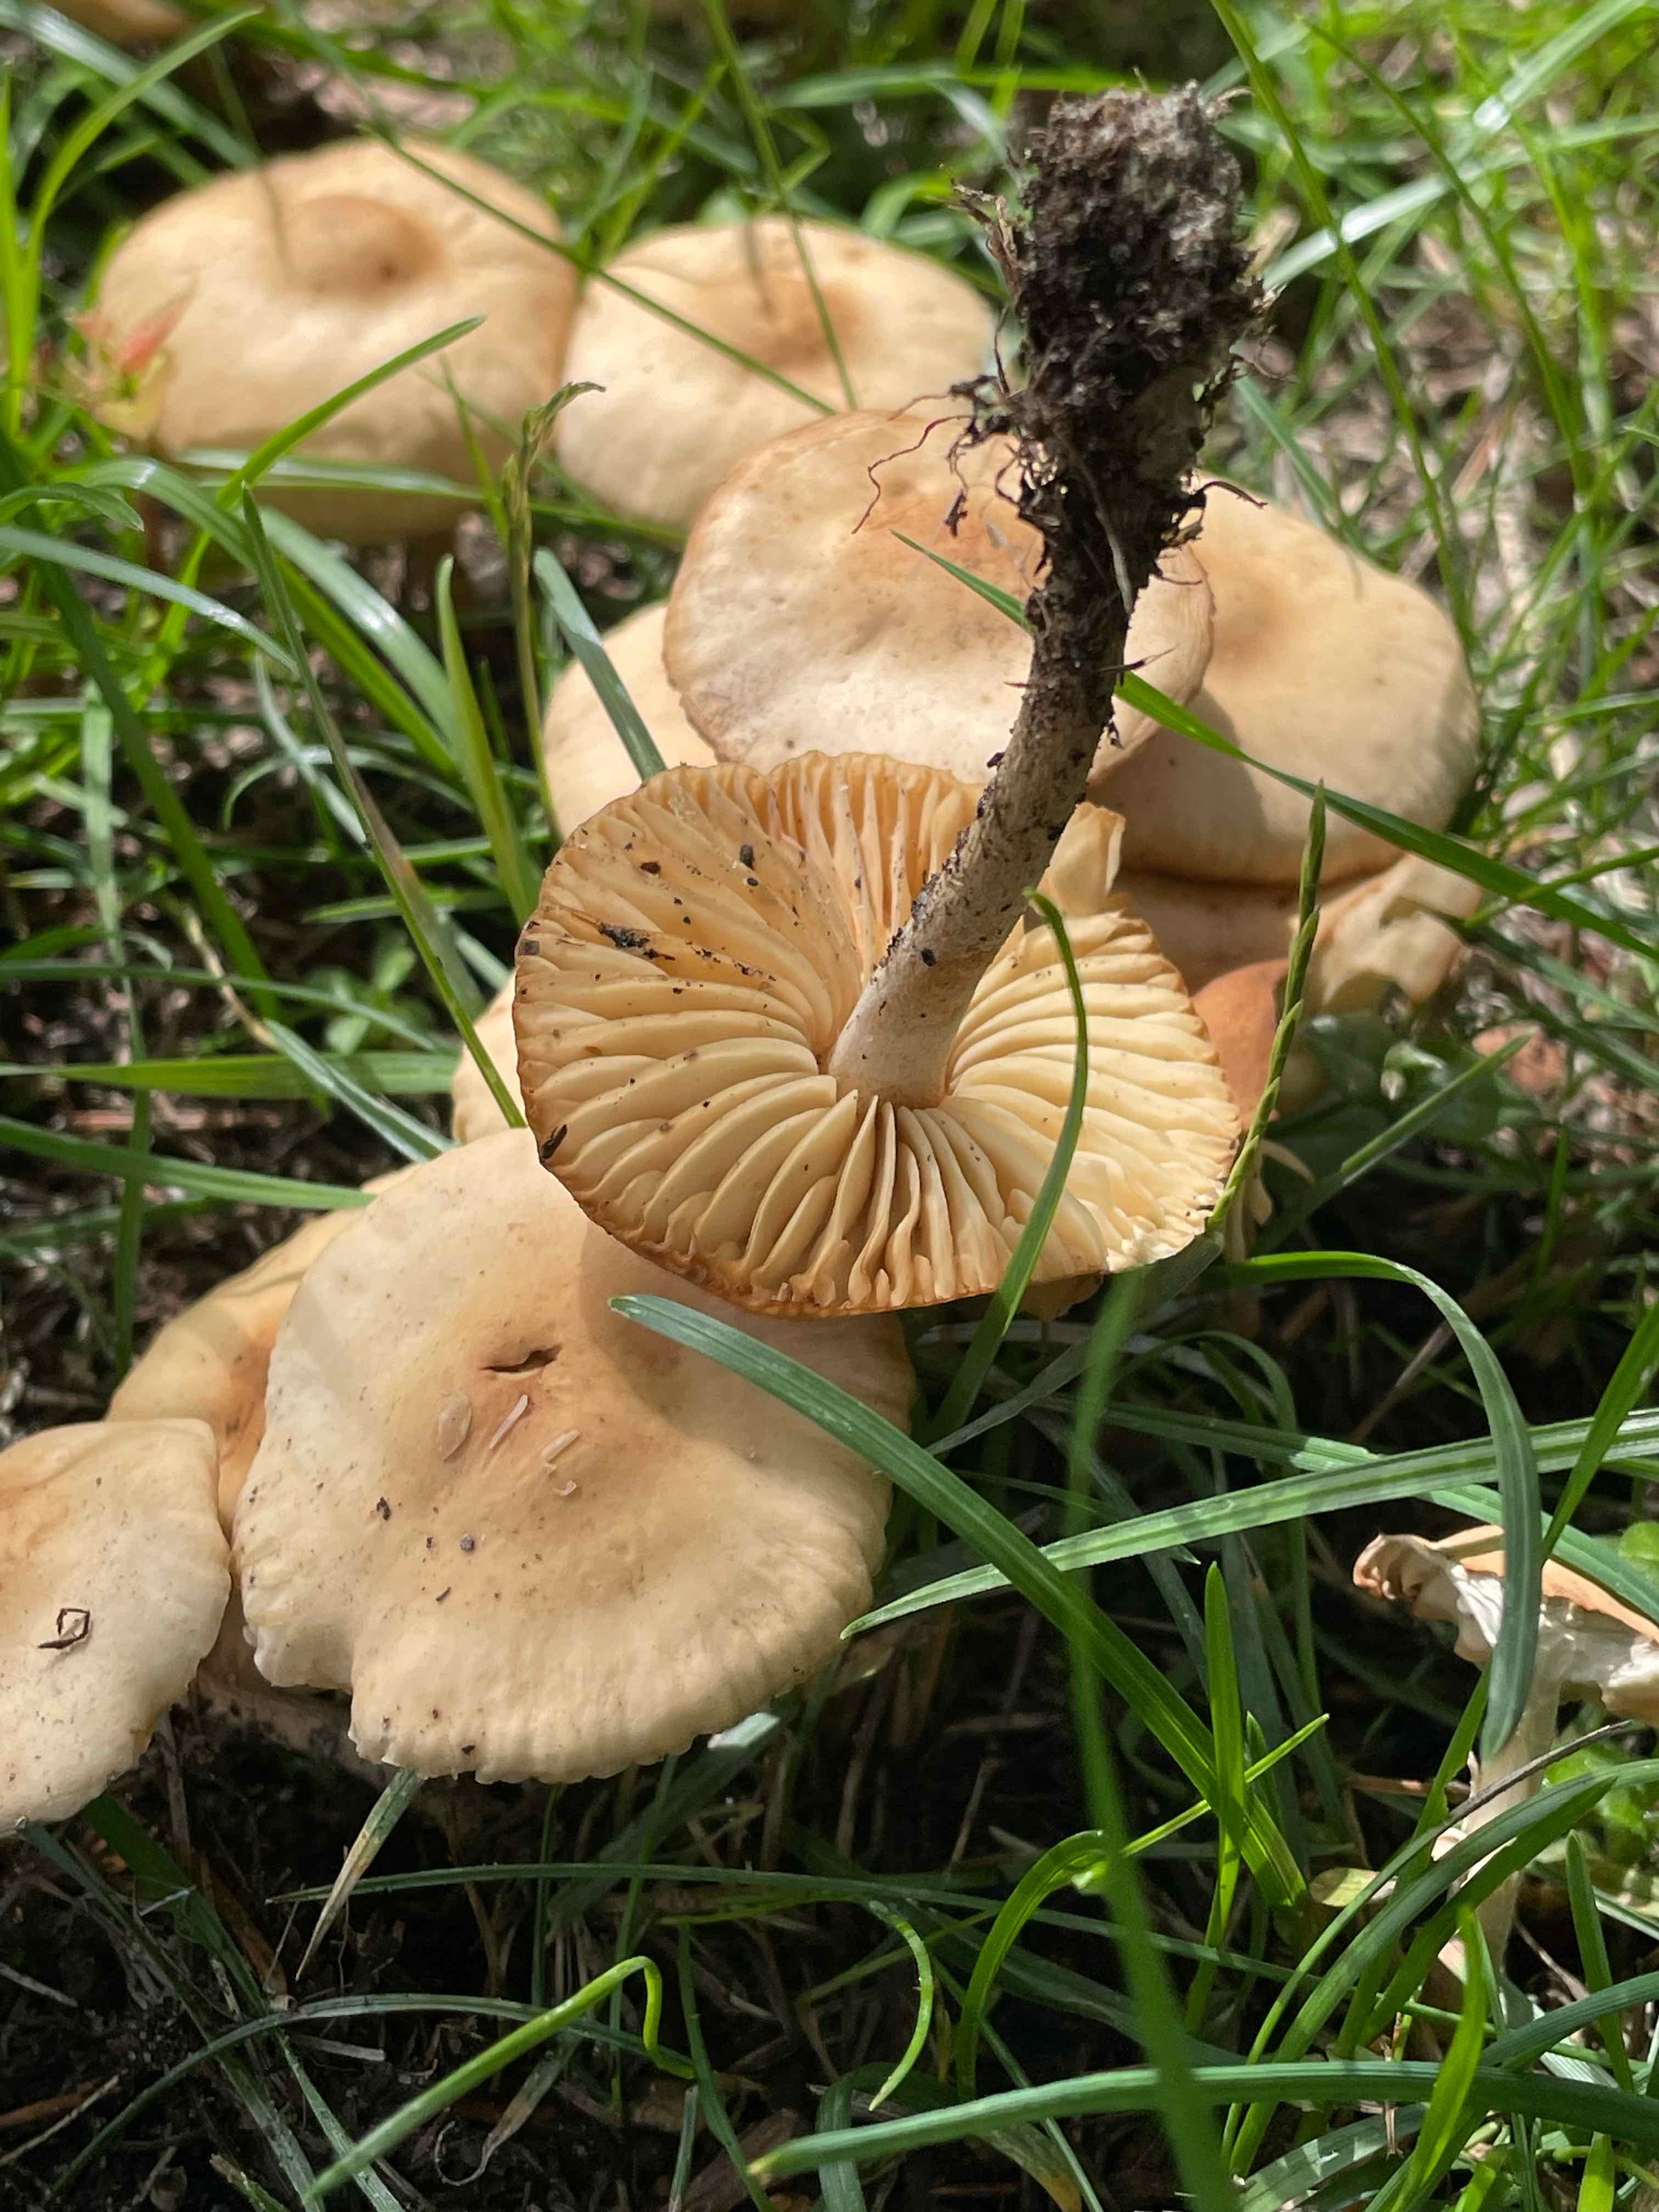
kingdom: Fungi
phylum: Basidiomycota
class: Agaricomycetes
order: Agaricales
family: Marasmiaceae
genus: Marasmius
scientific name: Marasmius oreades
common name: elledans-bruskhat
